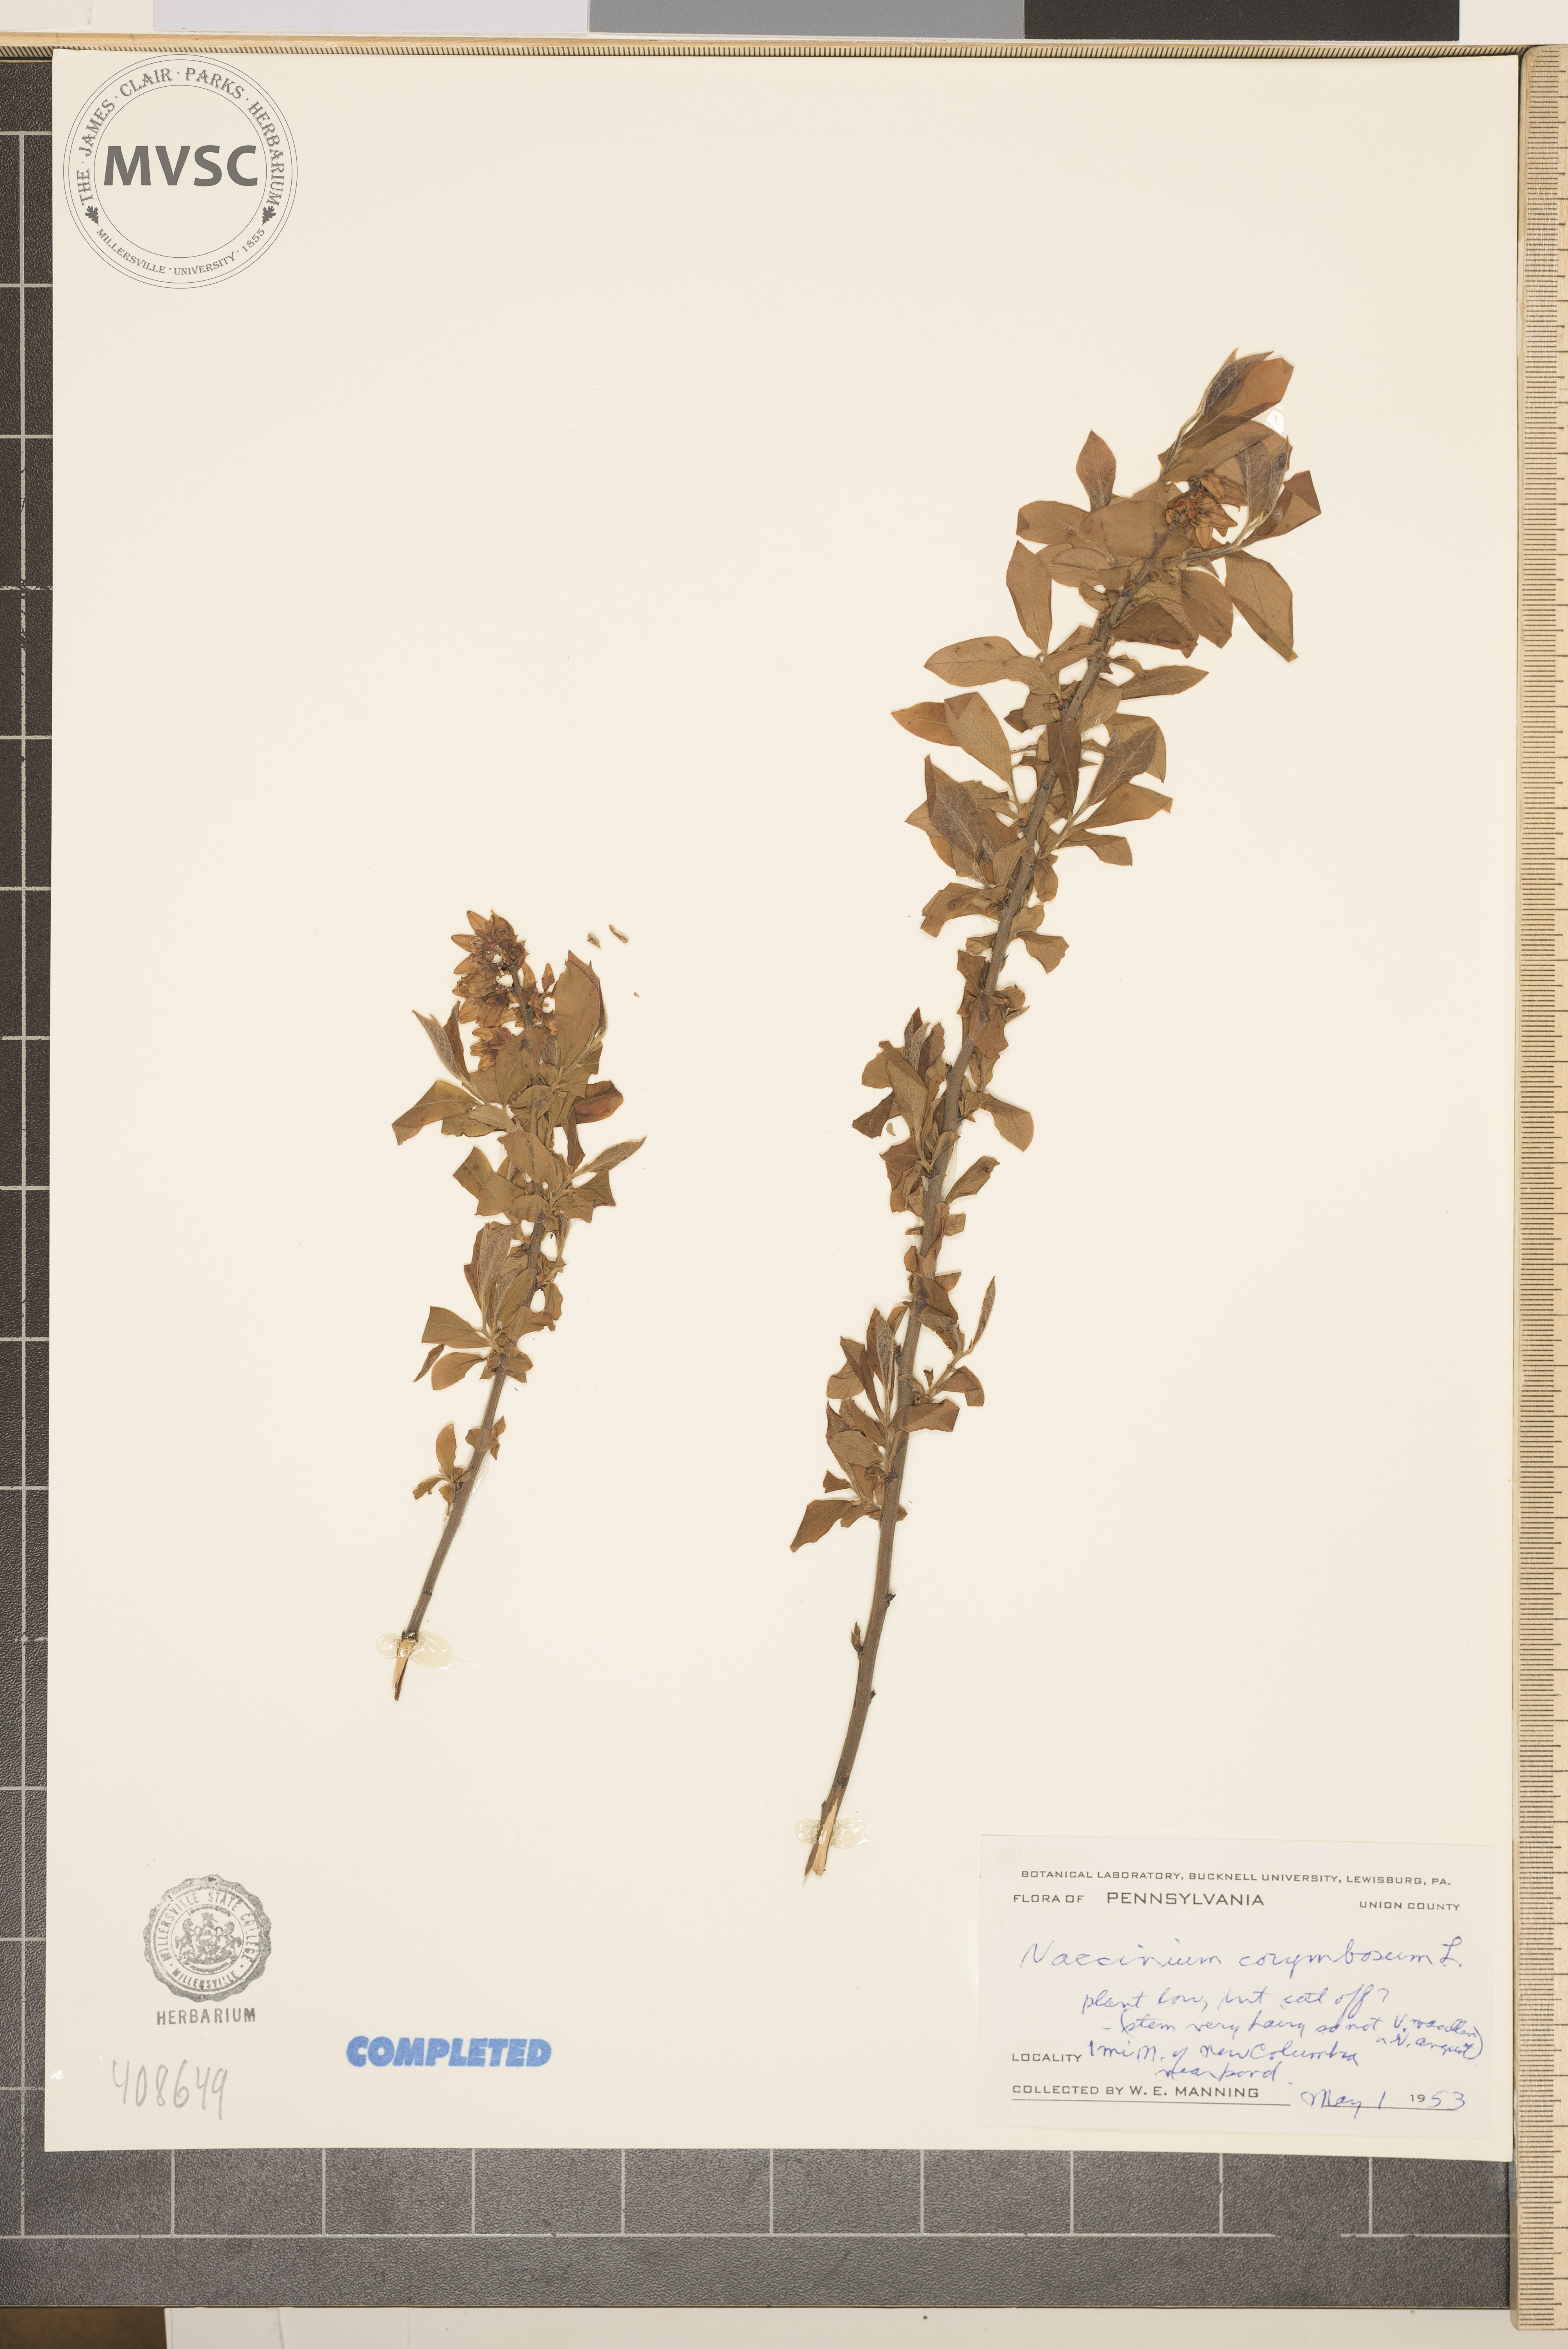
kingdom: Plantae
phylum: Tracheophyta
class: Magnoliopsida
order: Ericales
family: Ericaceae
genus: Vaccinium
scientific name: Vaccinium corymbosum
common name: Blueberry
